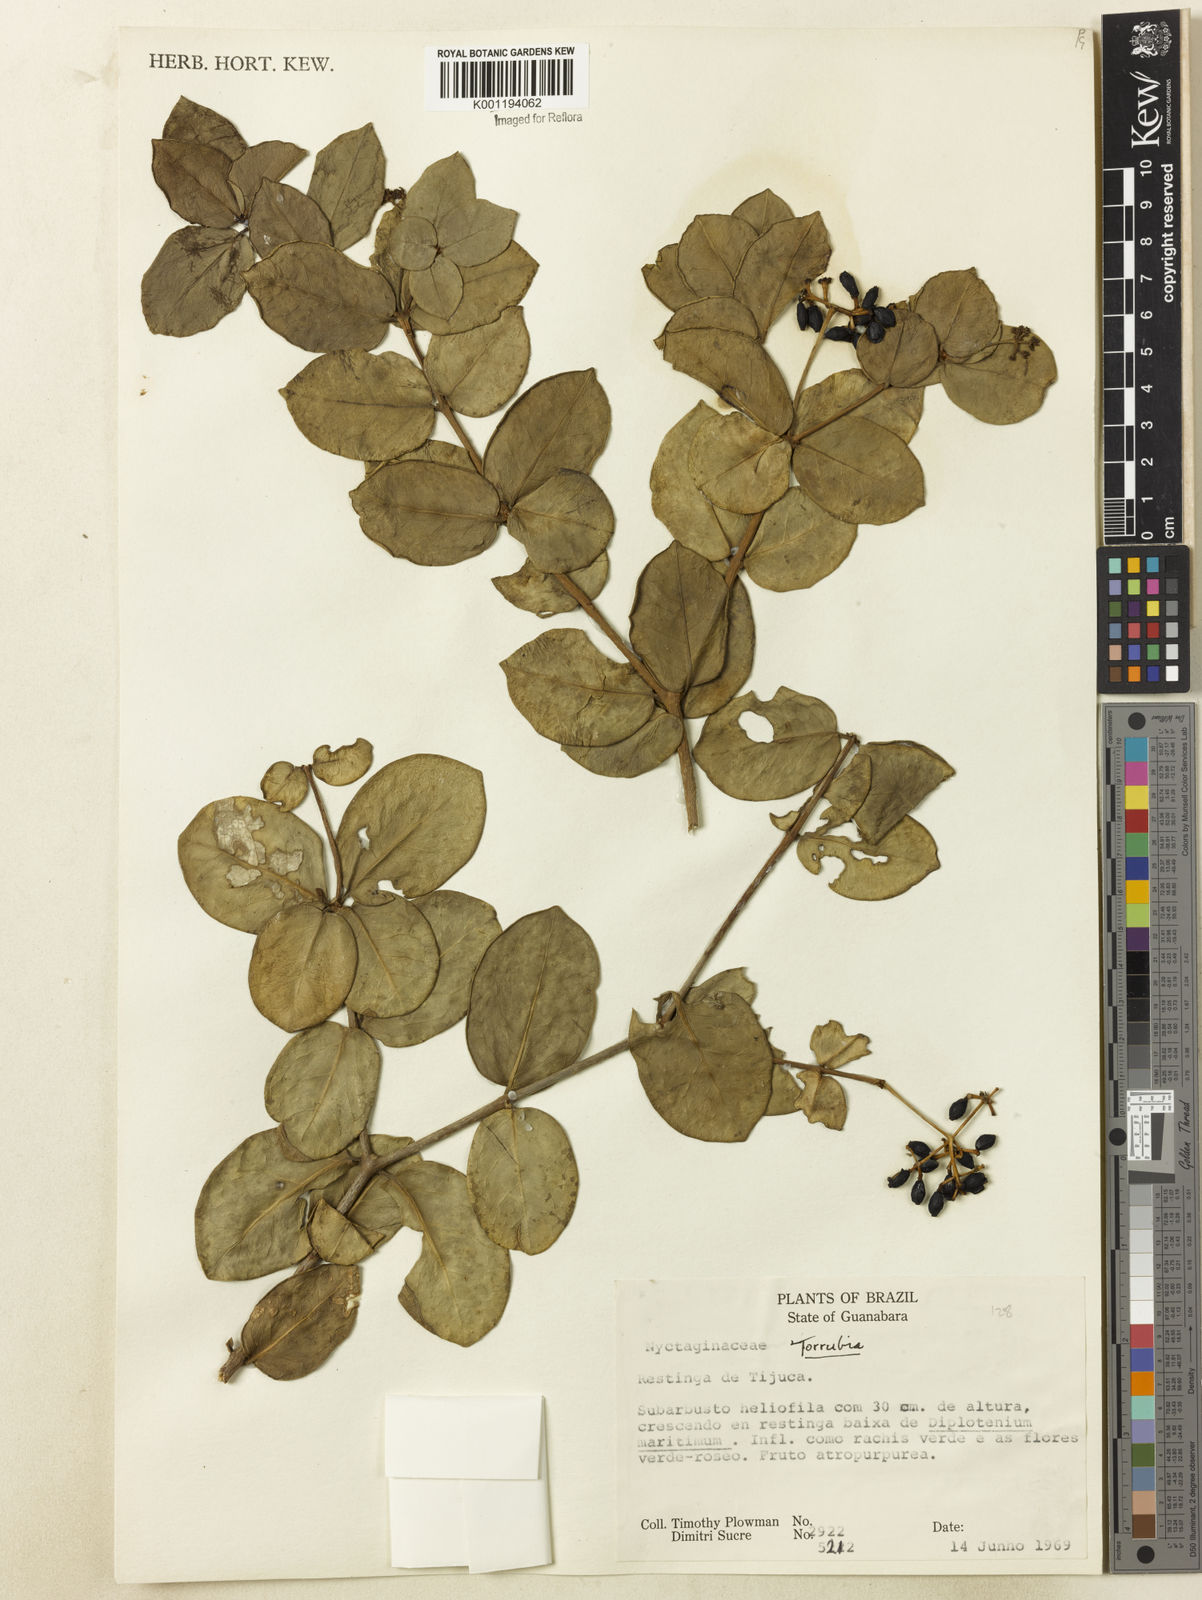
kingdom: Plantae
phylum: Tracheophyta
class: Magnoliopsida
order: Caryophyllales
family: Nyctaginaceae
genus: Guapira
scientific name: Guapira pernambucensis
